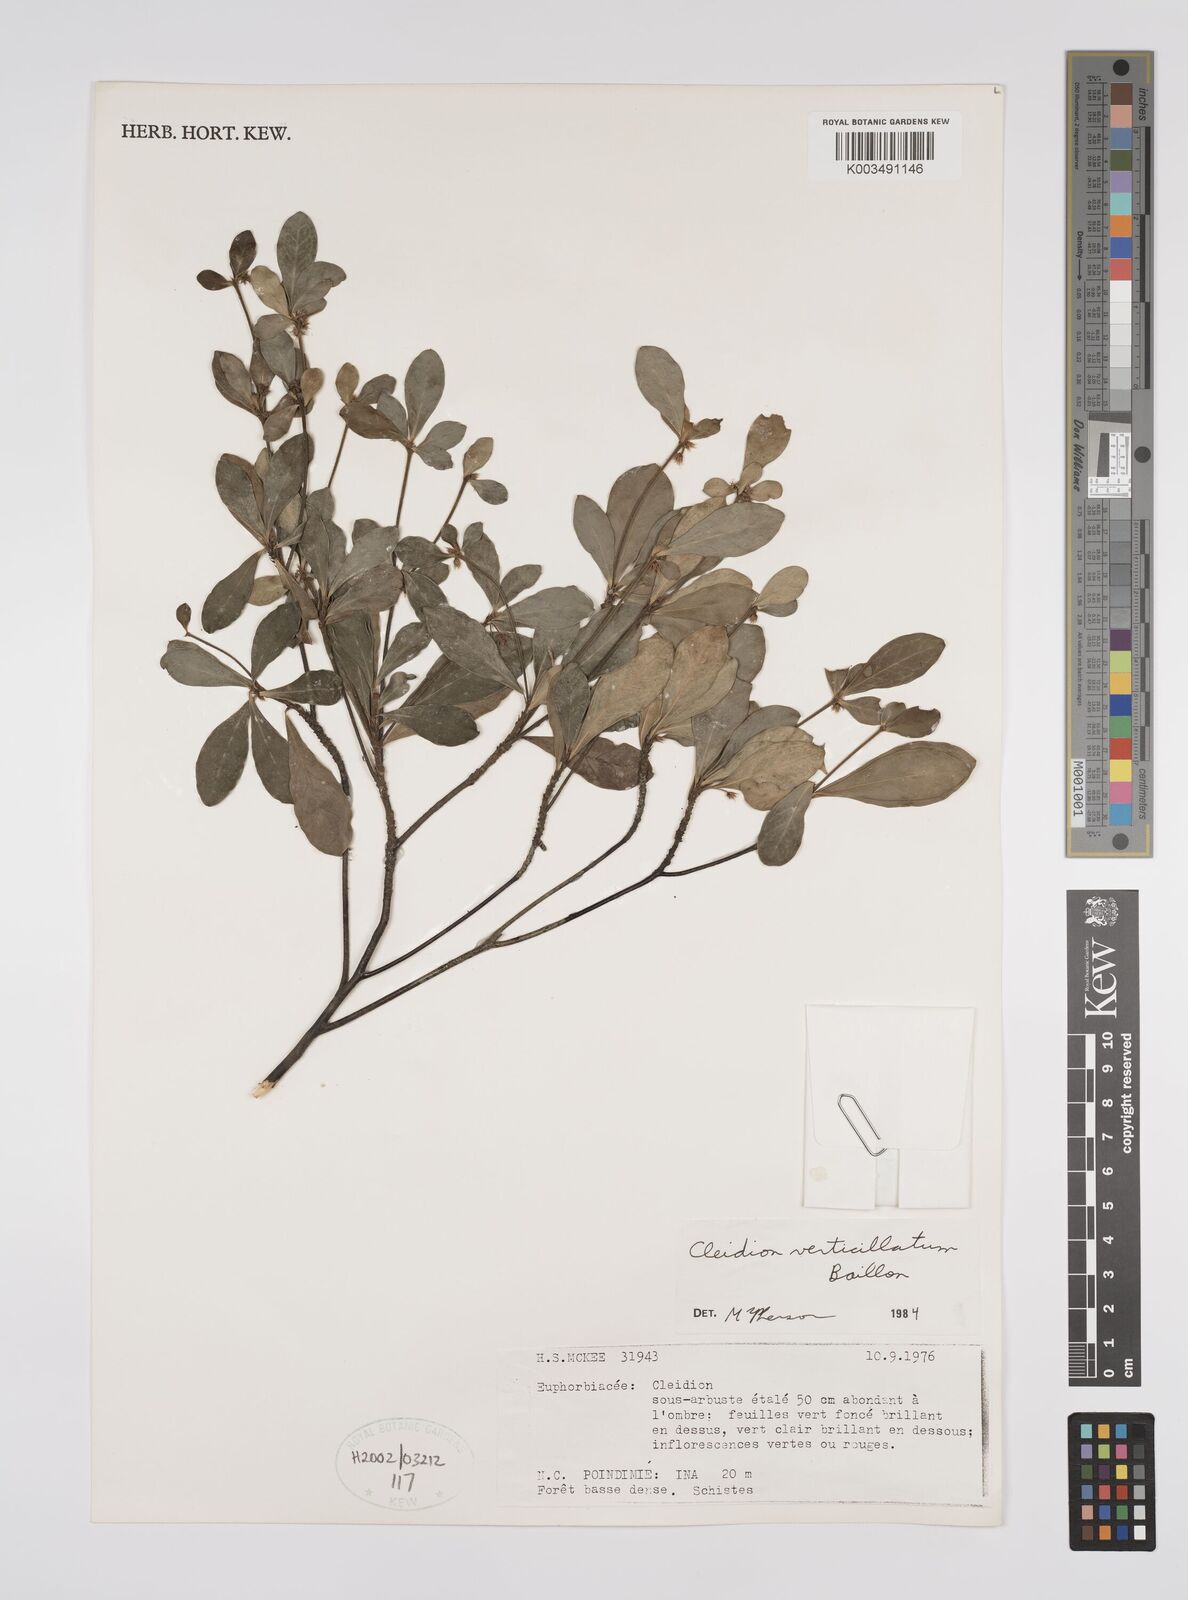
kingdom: Plantae
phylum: Tracheophyta
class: Magnoliopsida
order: Malpighiales
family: Euphorbiaceae
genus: Cleidion
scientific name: Cleidion verticillatum
